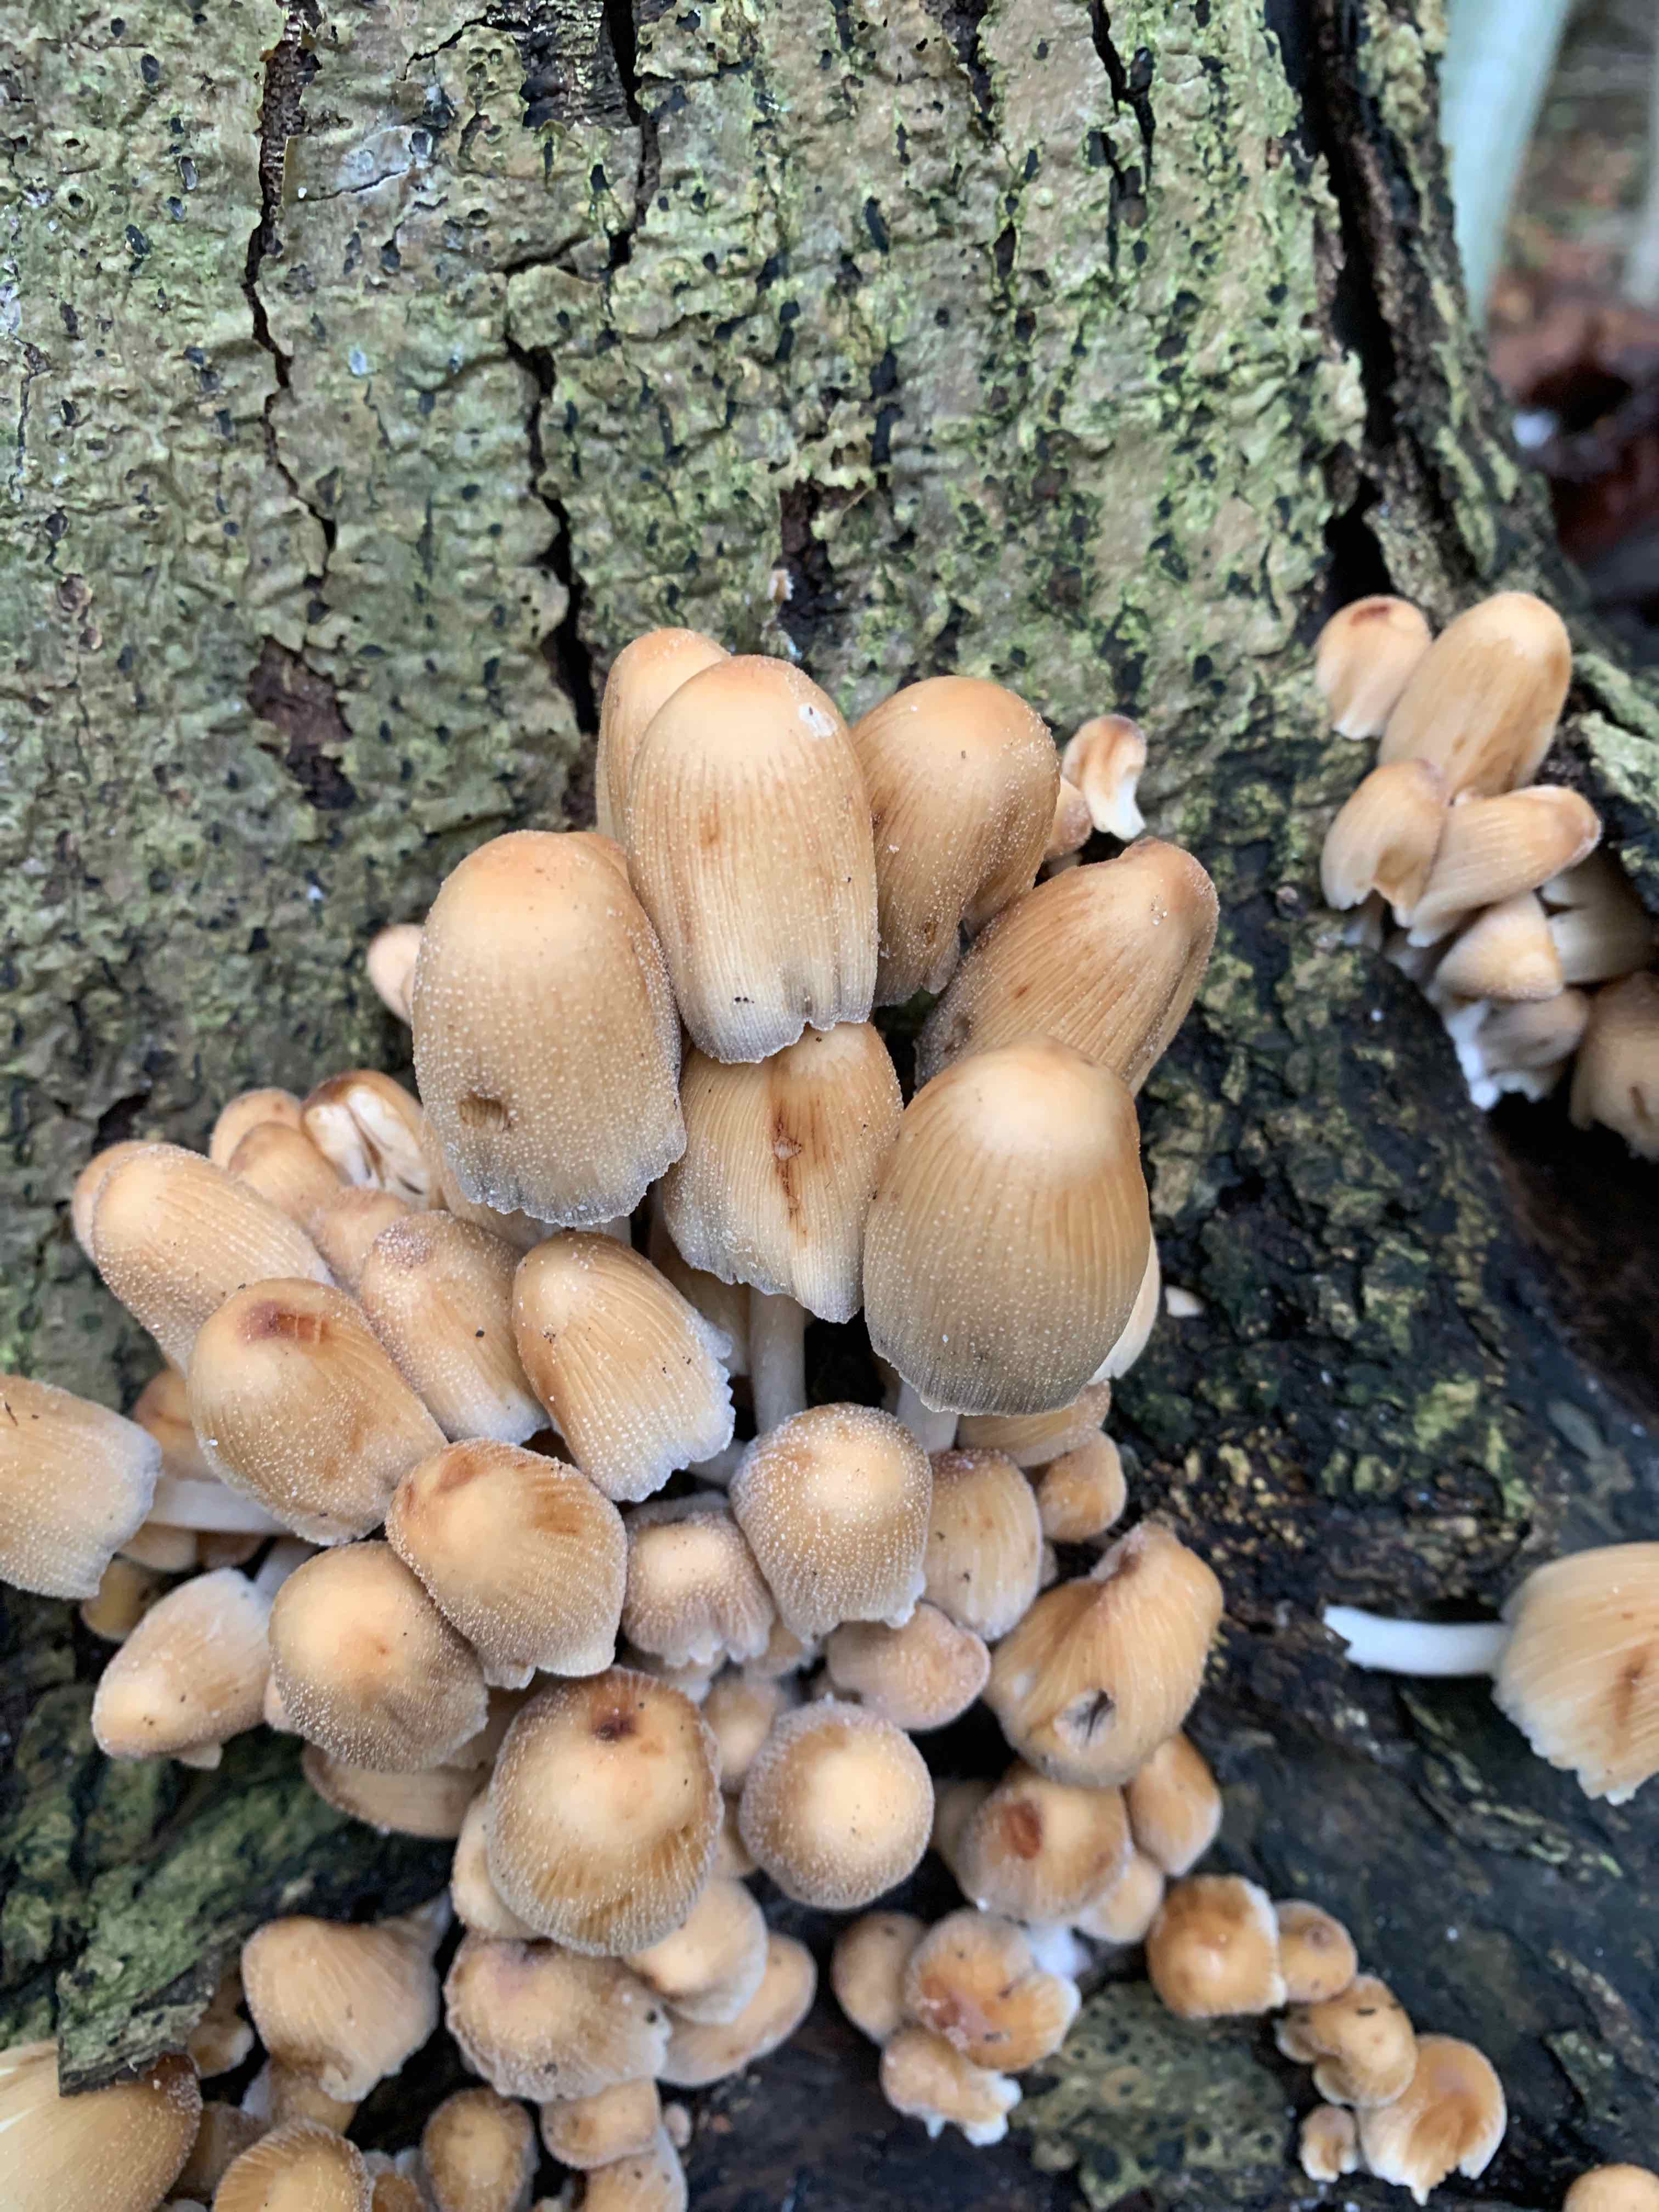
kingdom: Fungi
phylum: Basidiomycota
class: Agaricomycetes
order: Agaricales
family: Psathyrellaceae
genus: Coprinellus
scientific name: Coprinellus micaceus
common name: glimmer-blækhat
